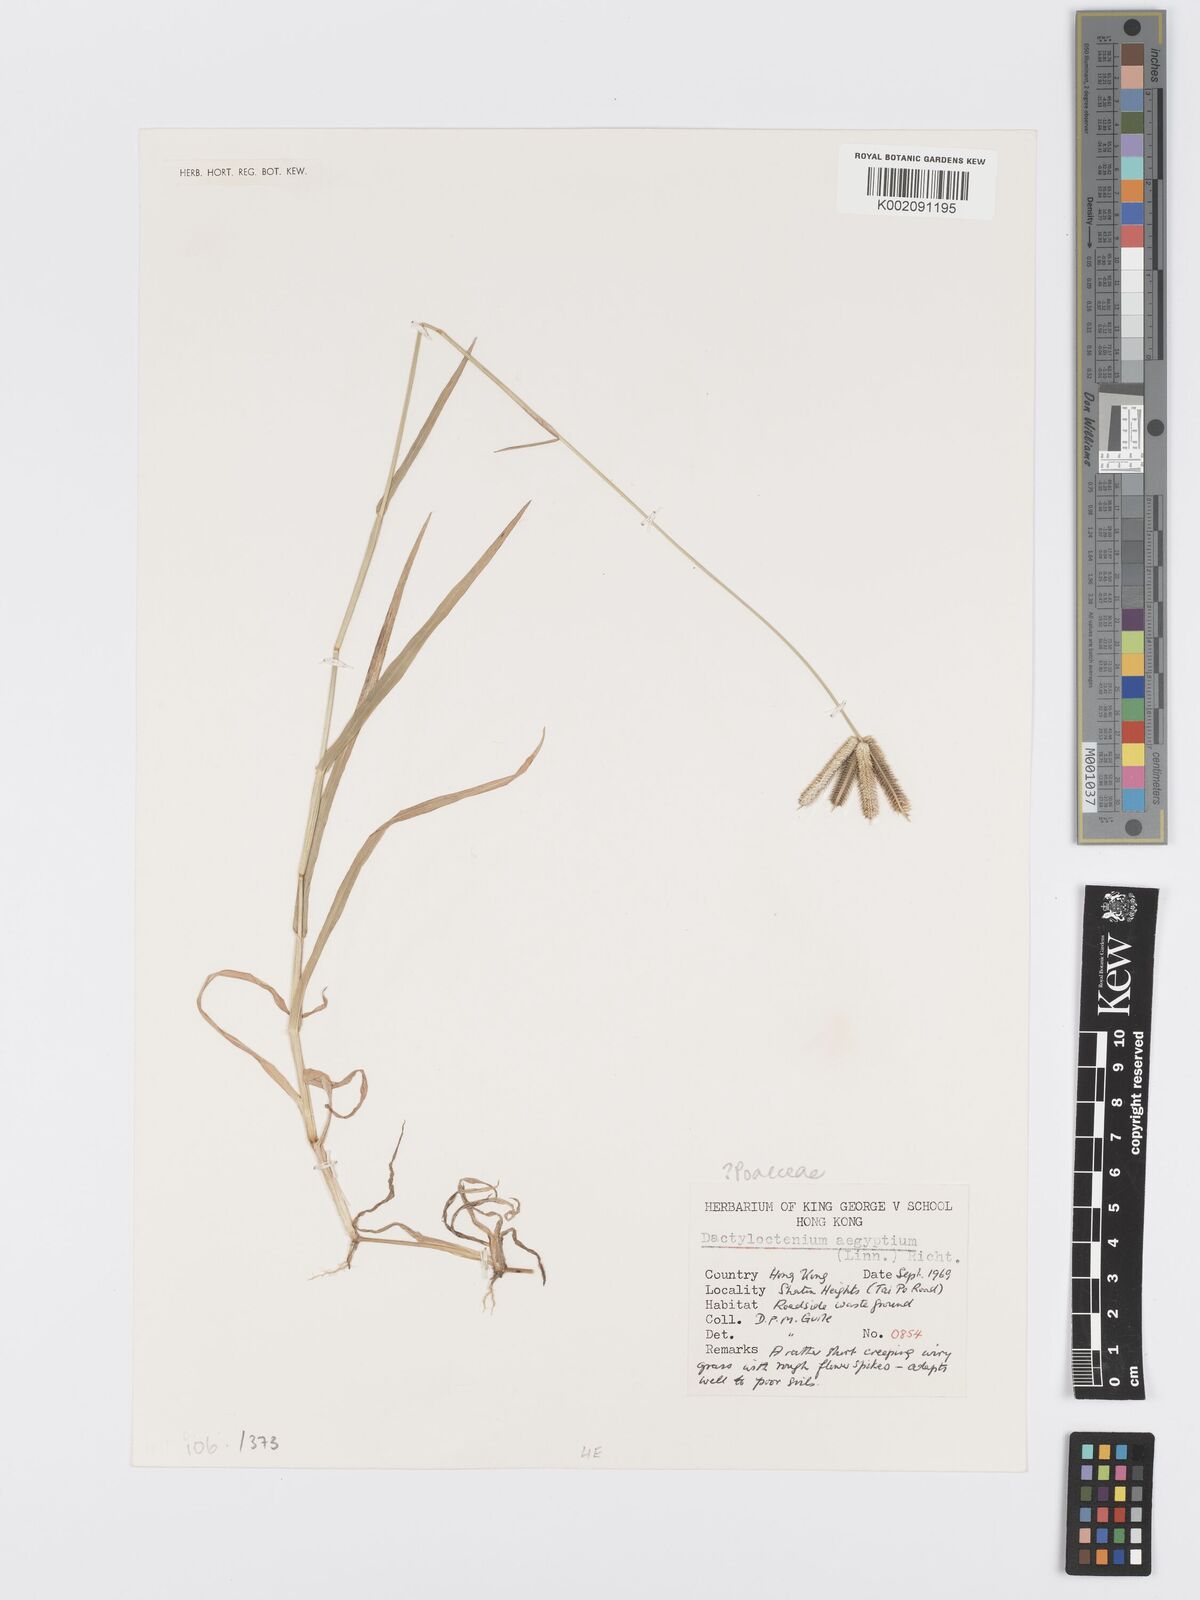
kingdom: Plantae
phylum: Tracheophyta
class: Liliopsida
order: Poales
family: Poaceae
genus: Dactyloctenium
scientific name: Dactyloctenium aegyptium
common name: Egyptian grass
